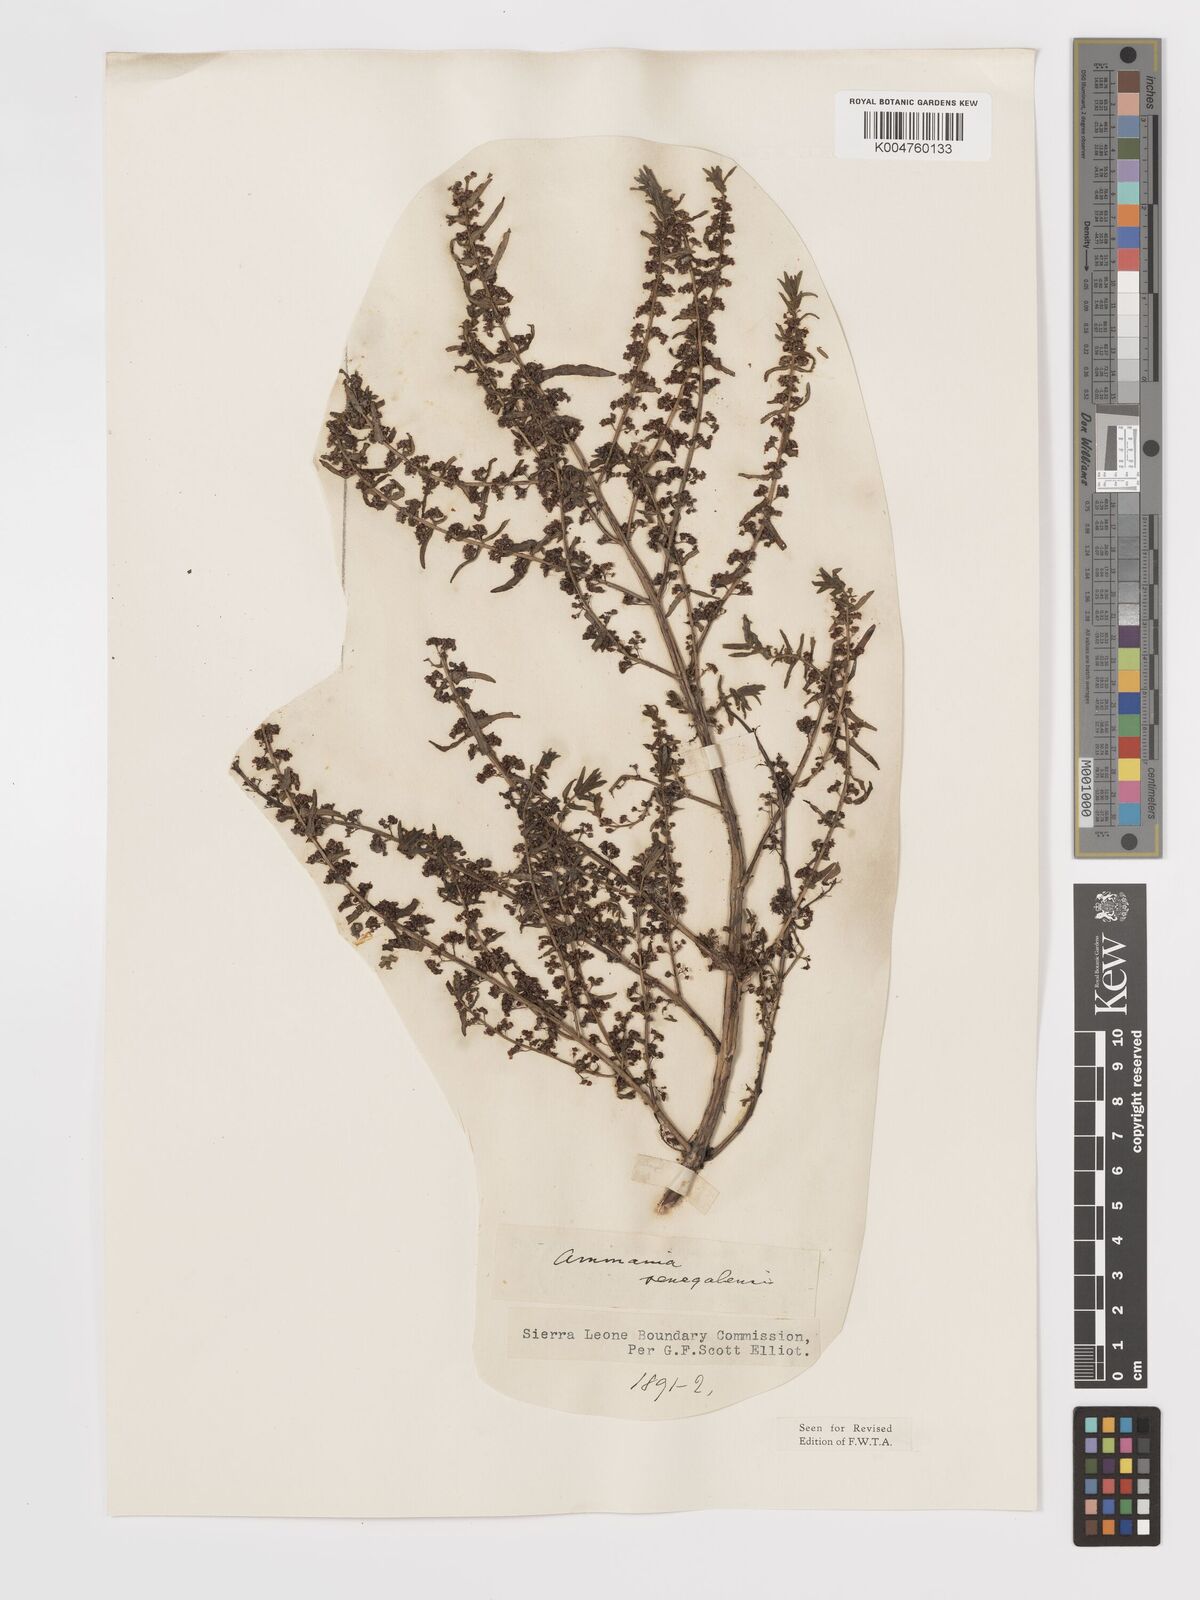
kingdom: Plantae
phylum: Tracheophyta
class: Magnoliopsida
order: Myrtales
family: Lythraceae
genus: Ammannia
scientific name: Ammannia senegalensis
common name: Red ammannia
